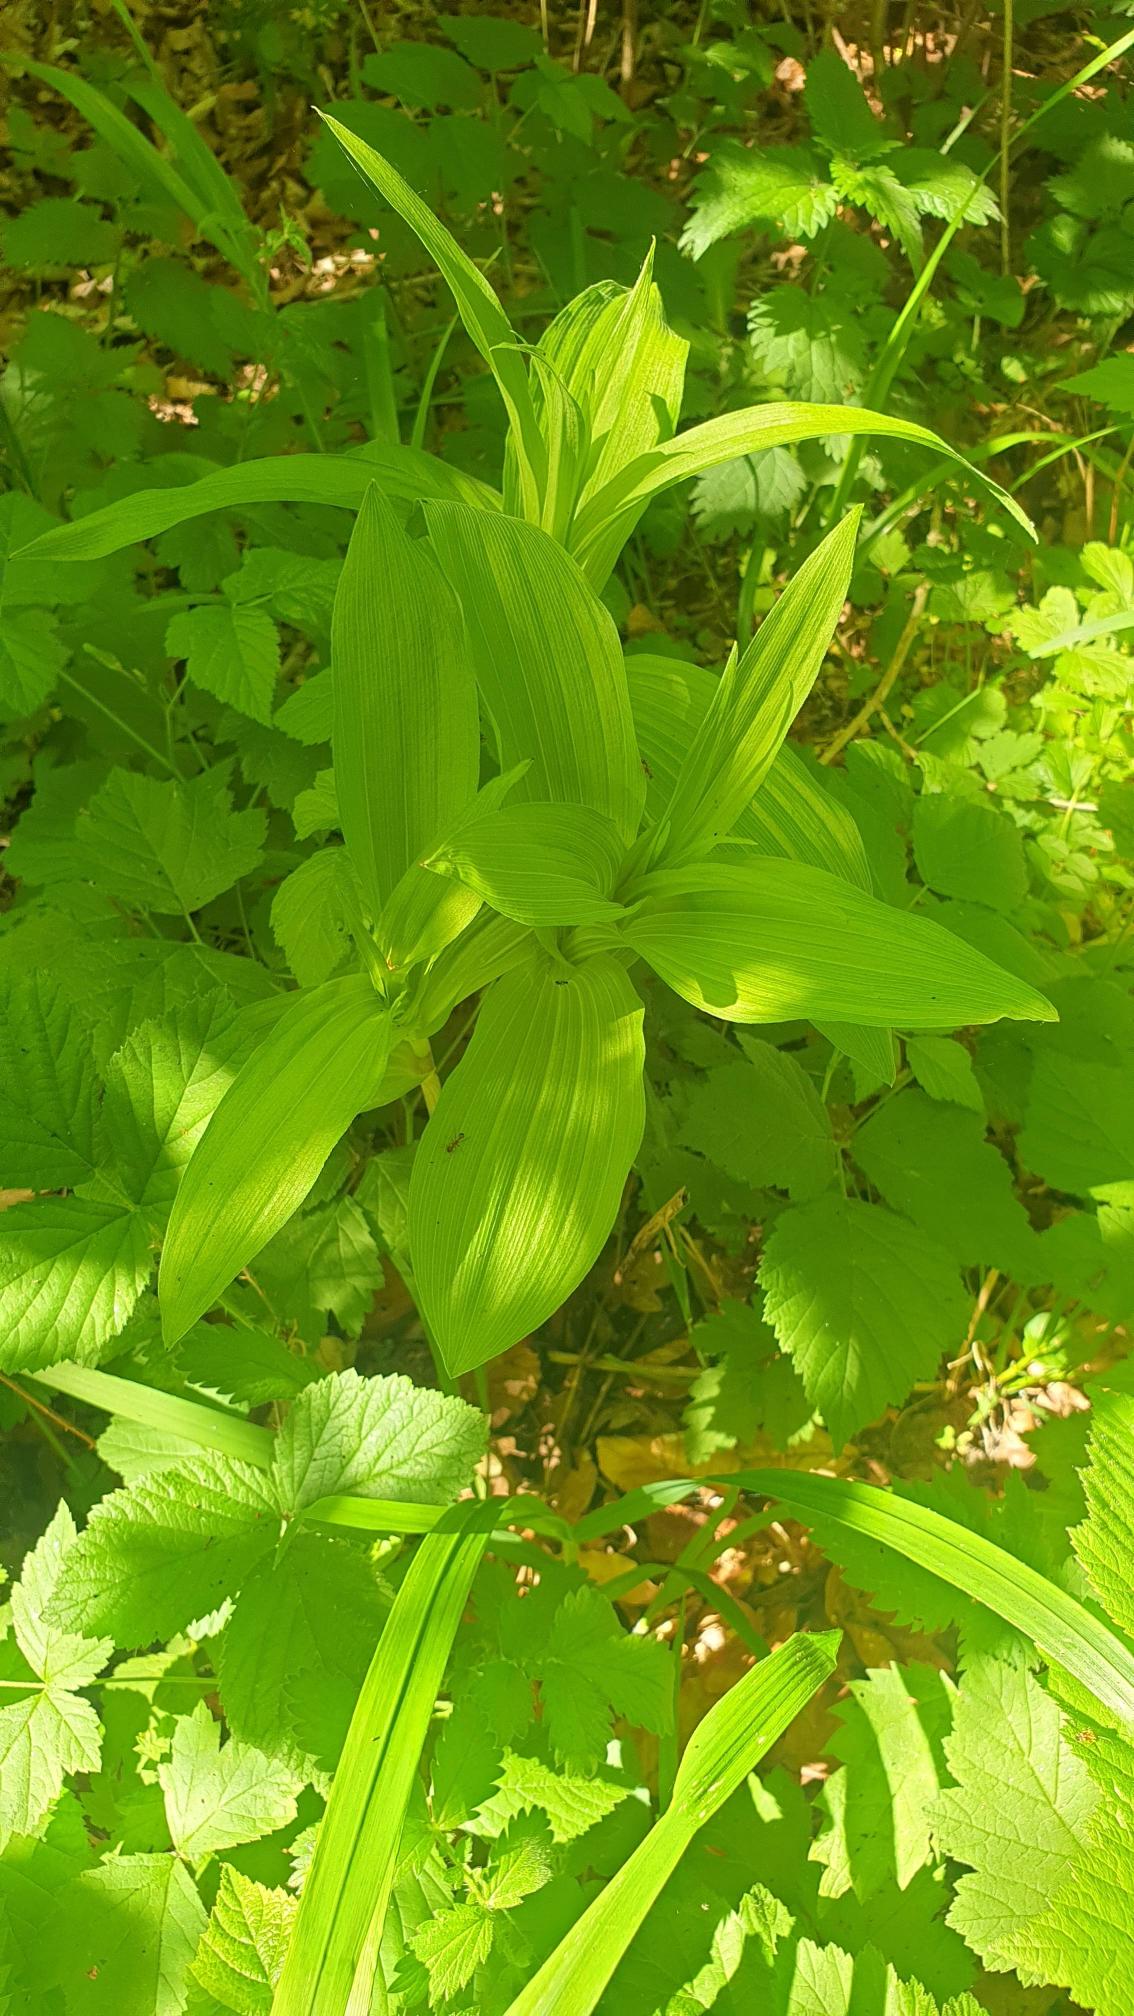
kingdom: Plantae
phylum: Tracheophyta
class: Liliopsida
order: Asparagales
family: Orchidaceae
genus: Epipactis
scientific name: Epipactis helleborine
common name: Skov-hullæbe
